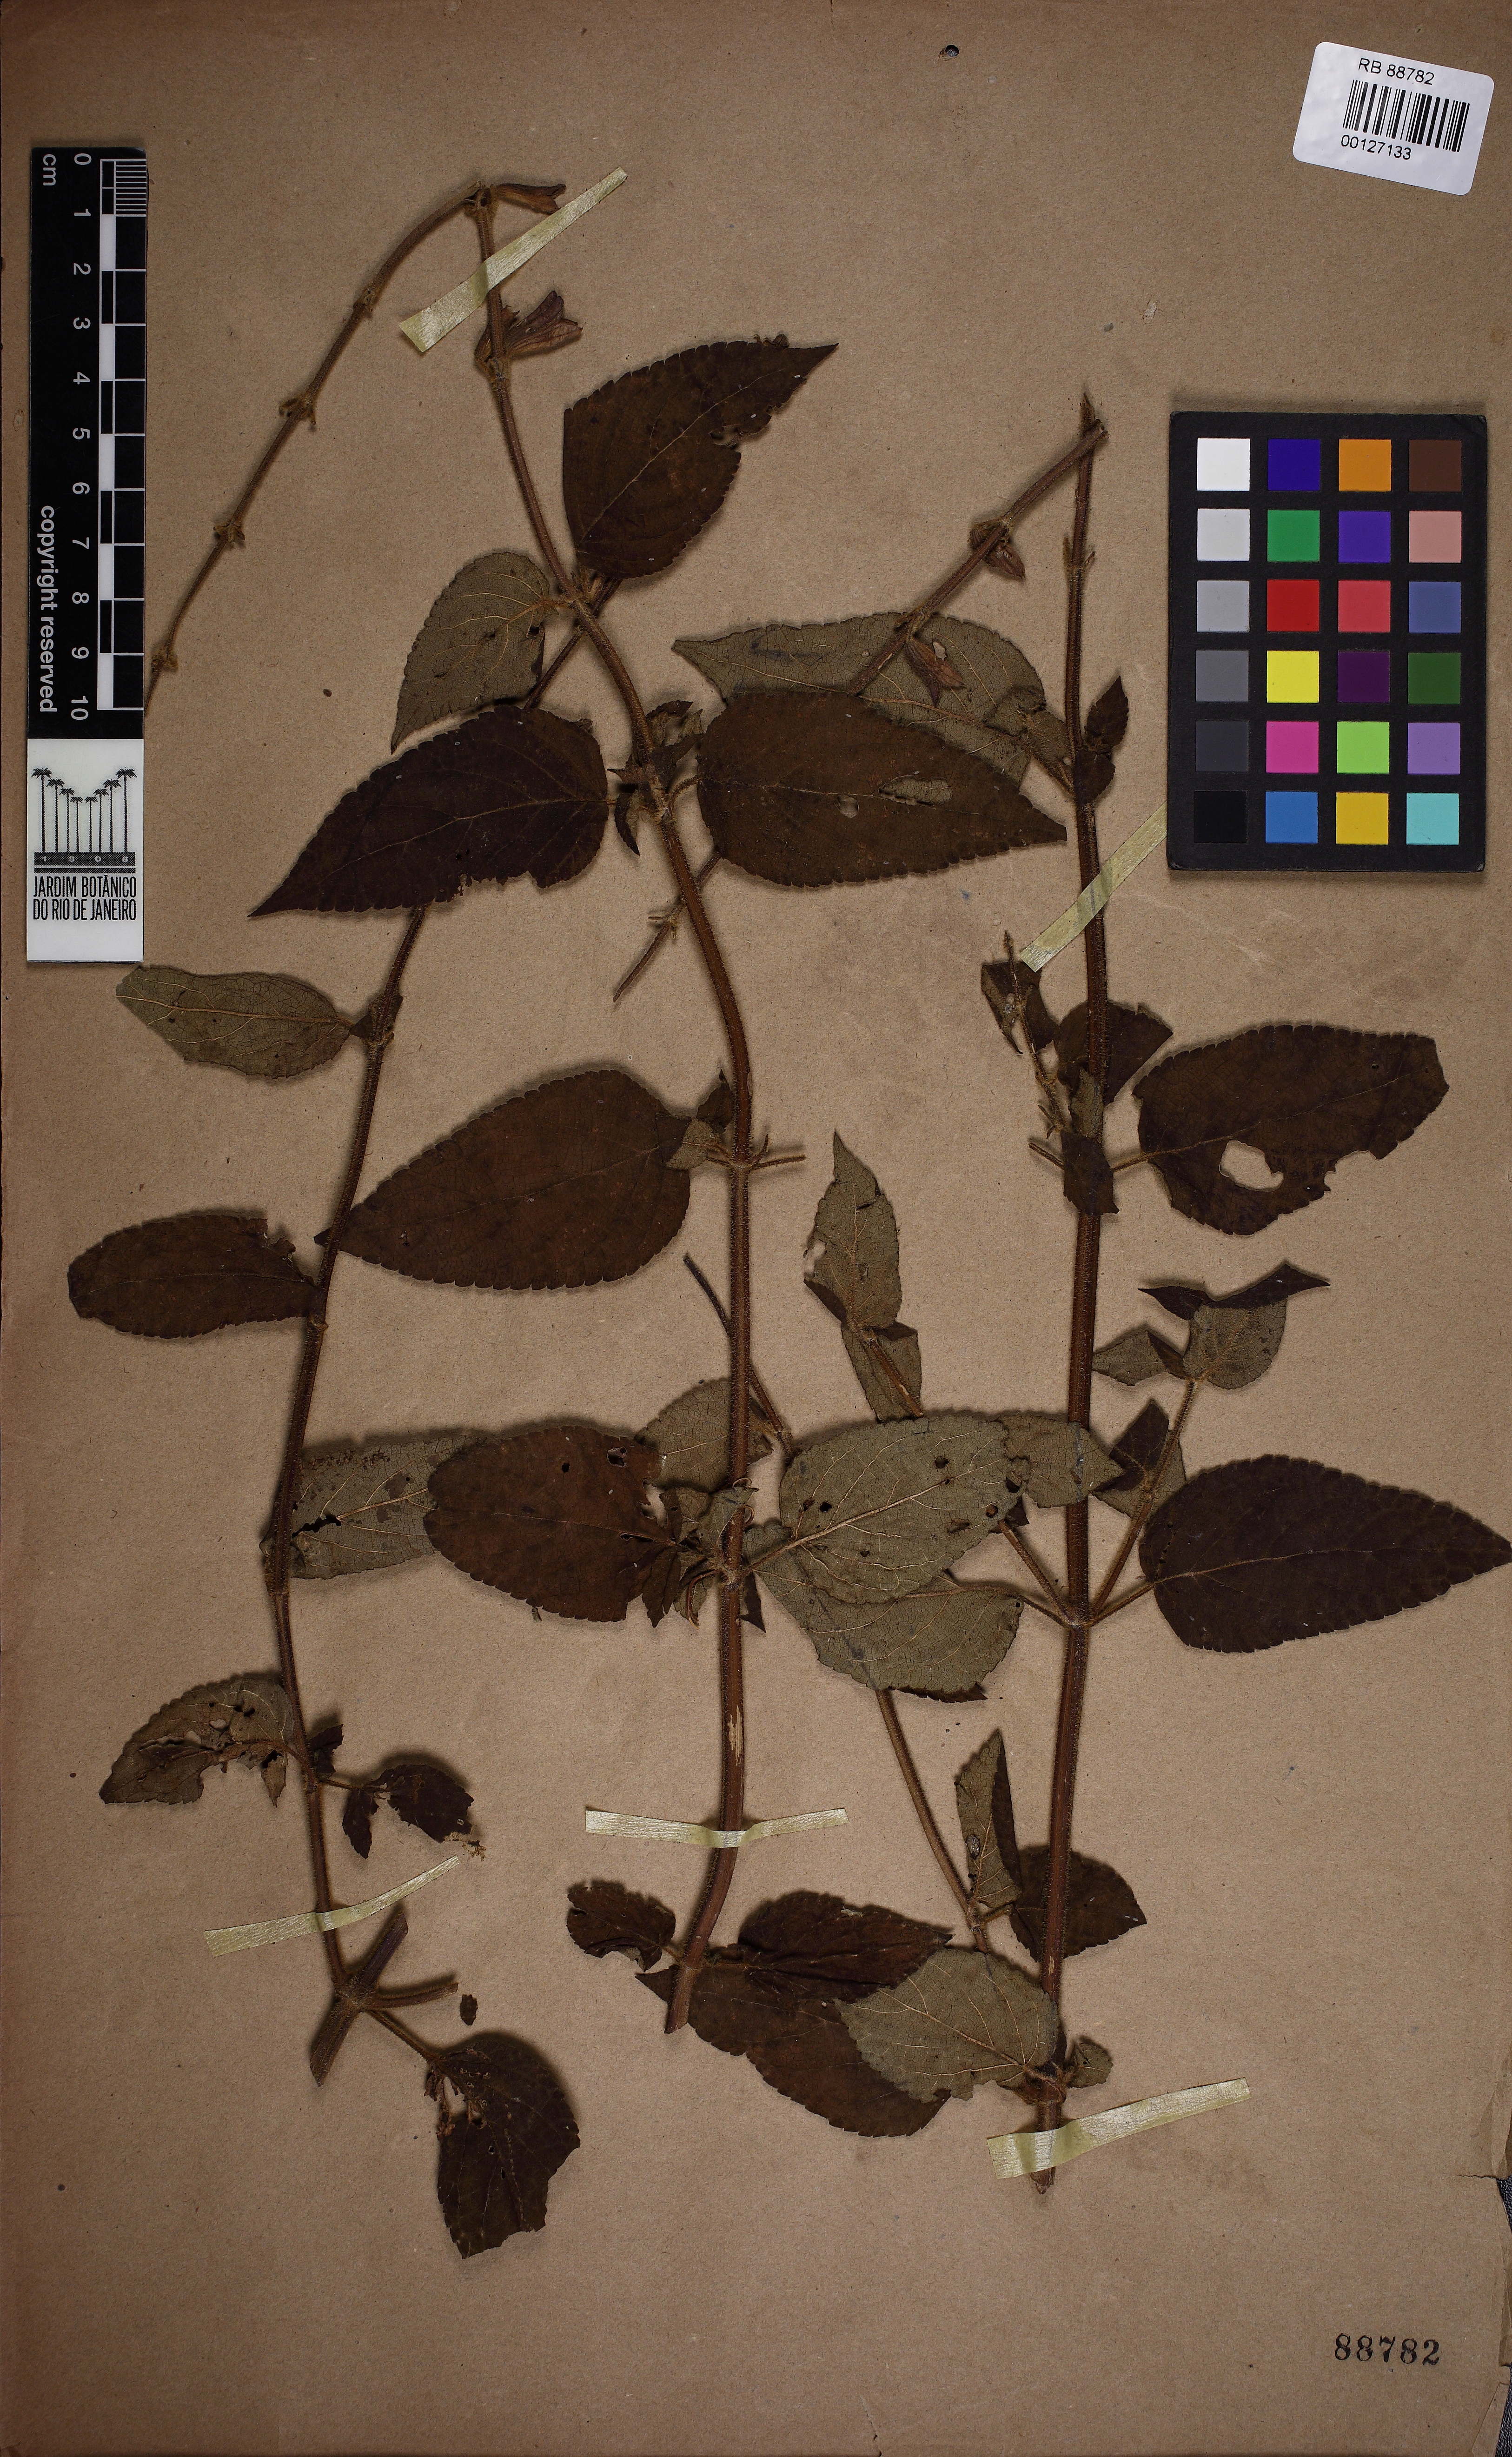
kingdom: Plantae
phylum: Tracheophyta
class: Magnoliopsida
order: Lamiales
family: Lamiaceae
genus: Salvia
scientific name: Salvia oligantha
